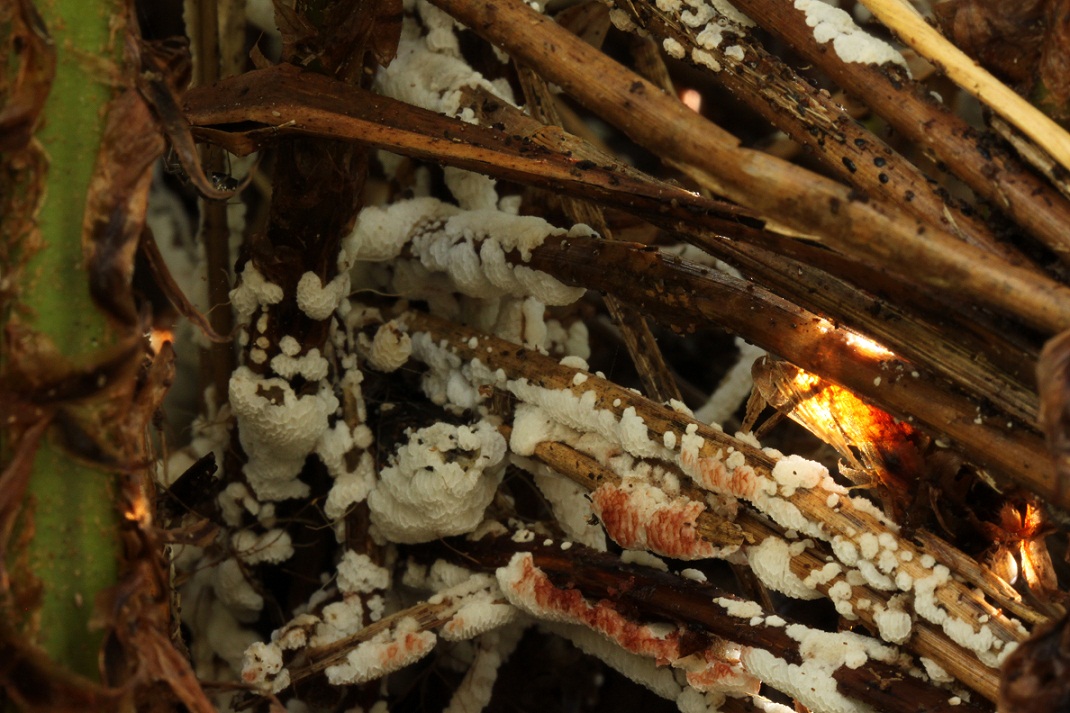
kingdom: Fungi
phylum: Basidiomycota
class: Agaricomycetes
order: Polyporales
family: Meripilaceae
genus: Rigidoporus
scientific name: Rigidoporus sanguinolentus
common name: blod-skorpeporesvamp
